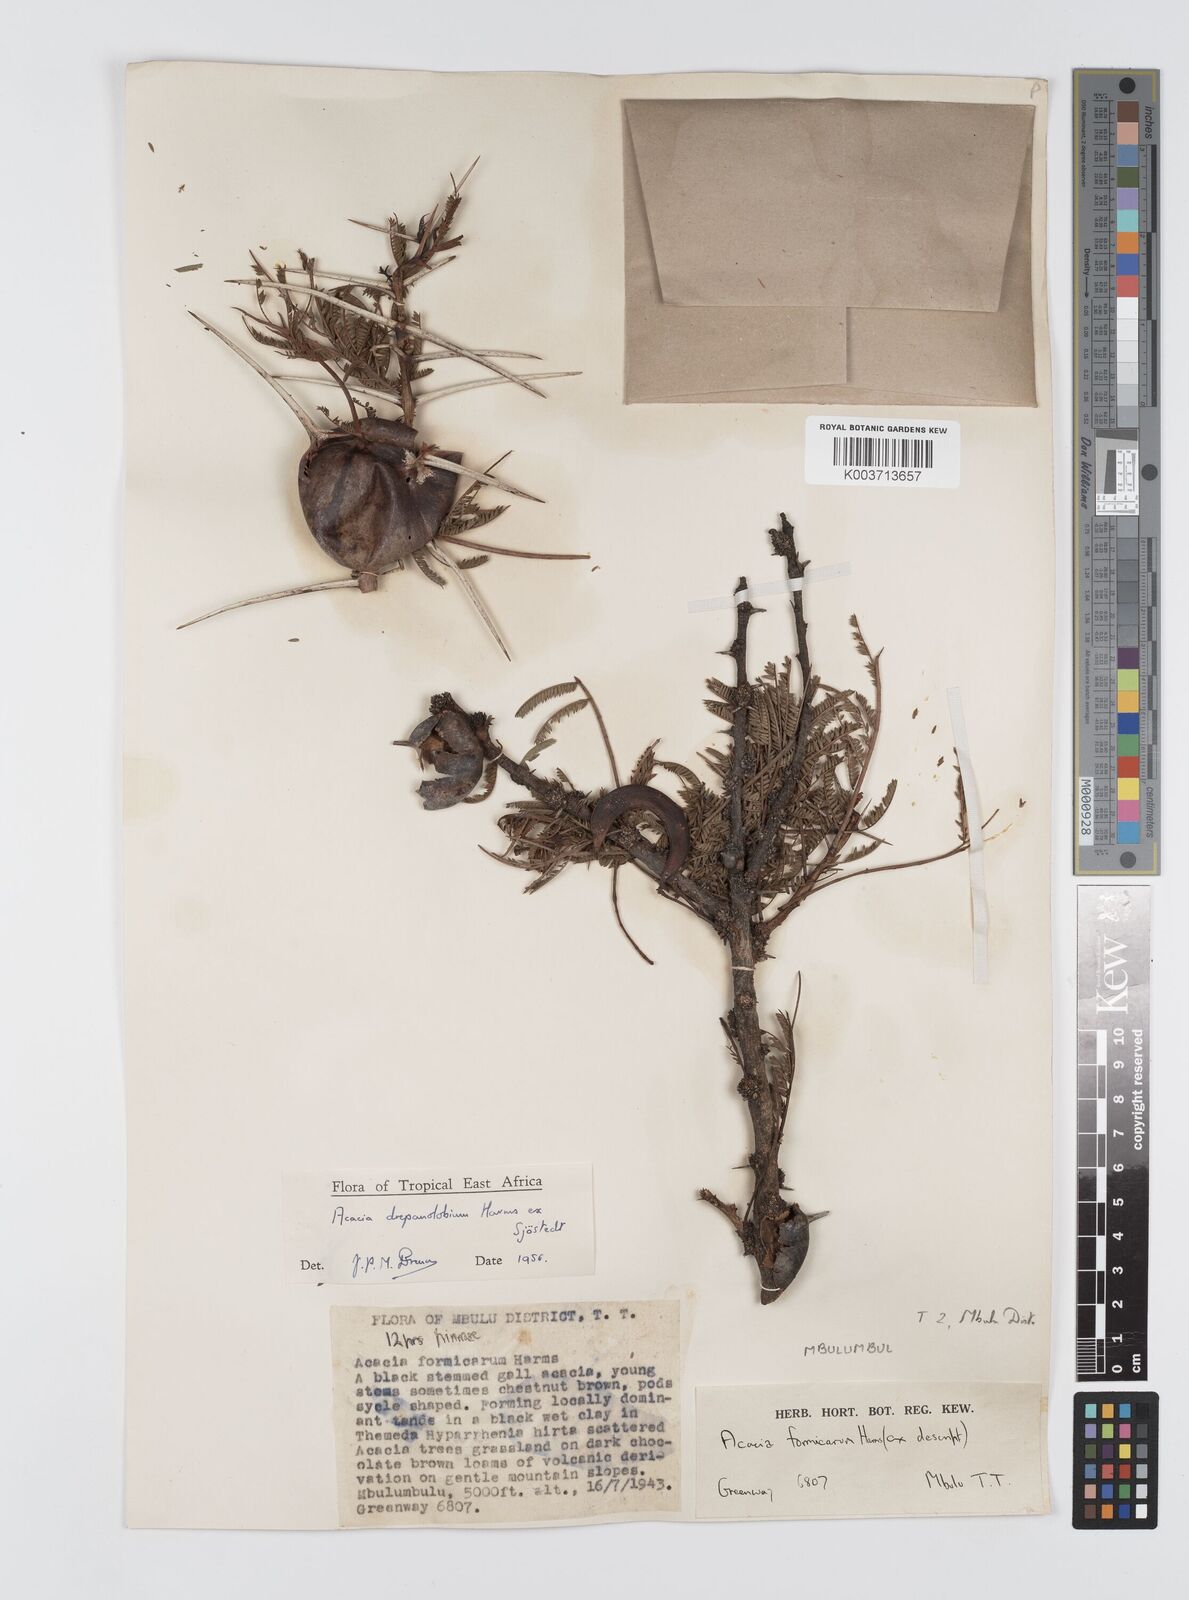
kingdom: Plantae
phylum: Tracheophyta
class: Magnoliopsida
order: Fabales
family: Fabaceae
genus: Vachellia
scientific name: Vachellia drepanolobium
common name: Whistling thorn
